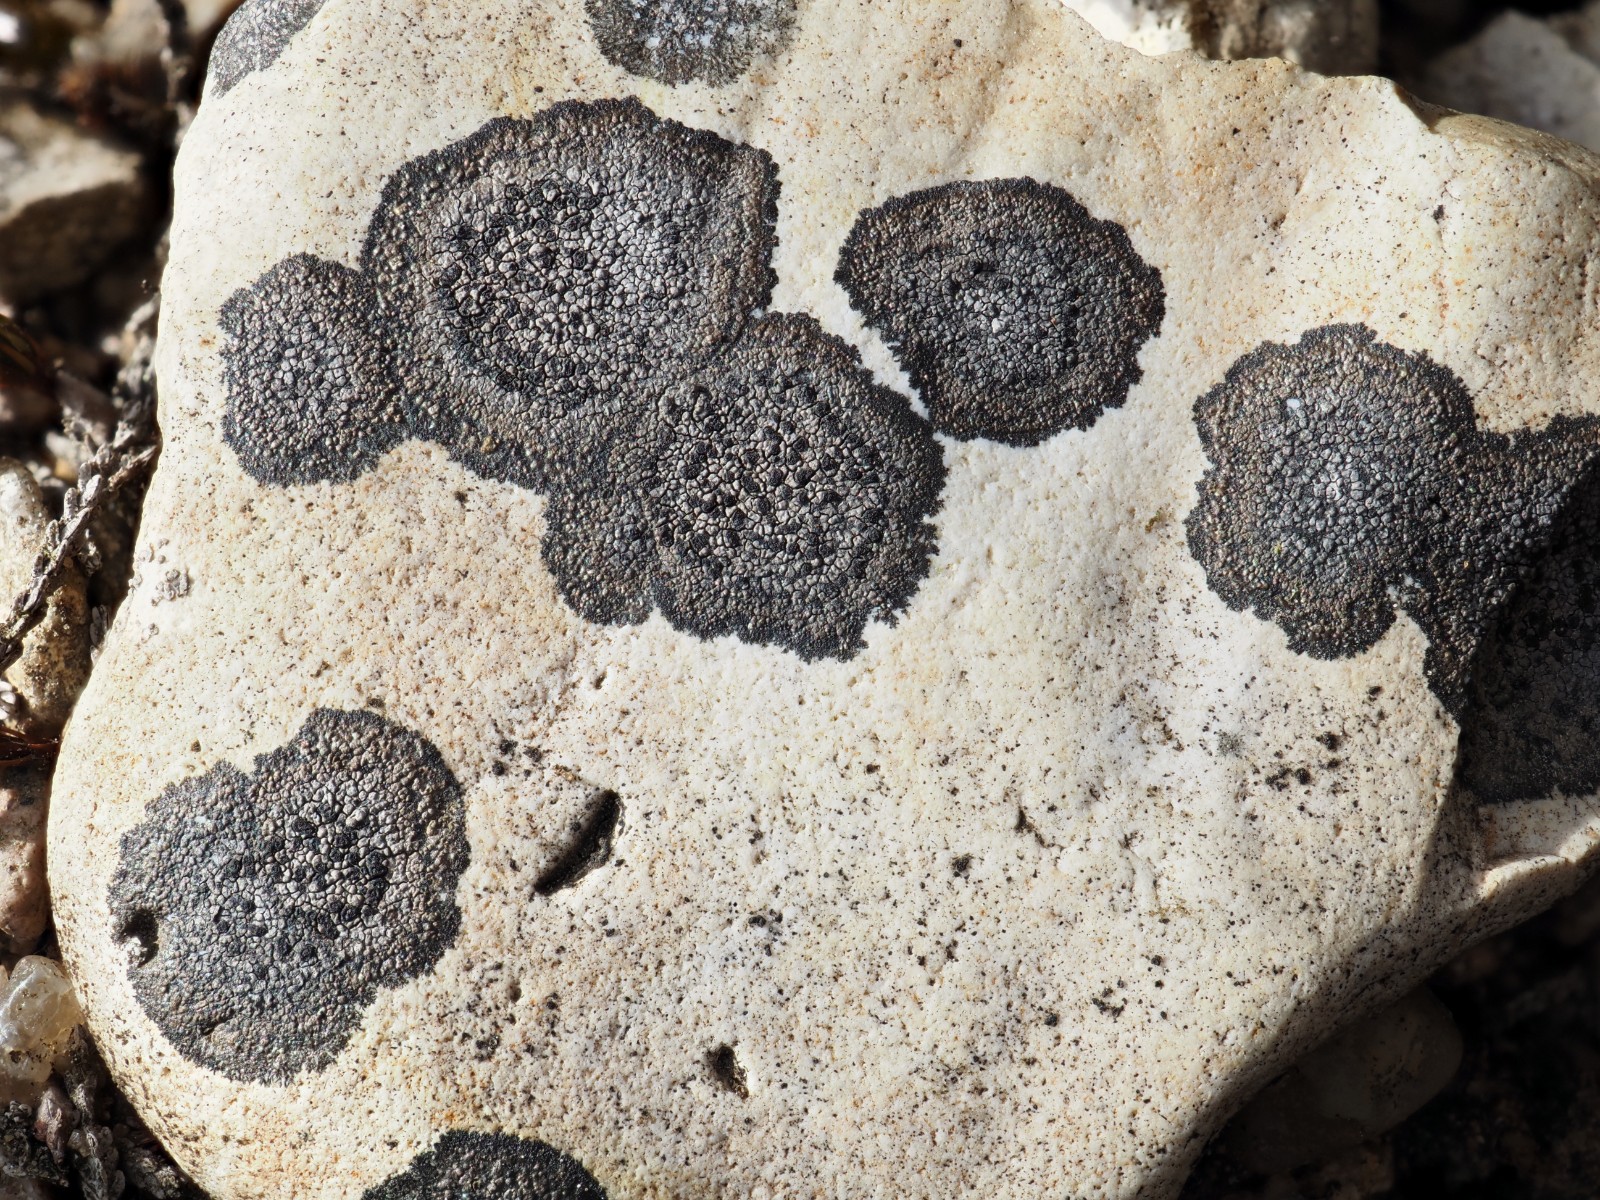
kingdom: Fungi
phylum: Ascomycota
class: Lecanoromycetes
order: Rhizocarpales
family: Rhizocarpaceae
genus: Rhizocarpon
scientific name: Rhizocarpon reductum
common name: mørk landkortlav
